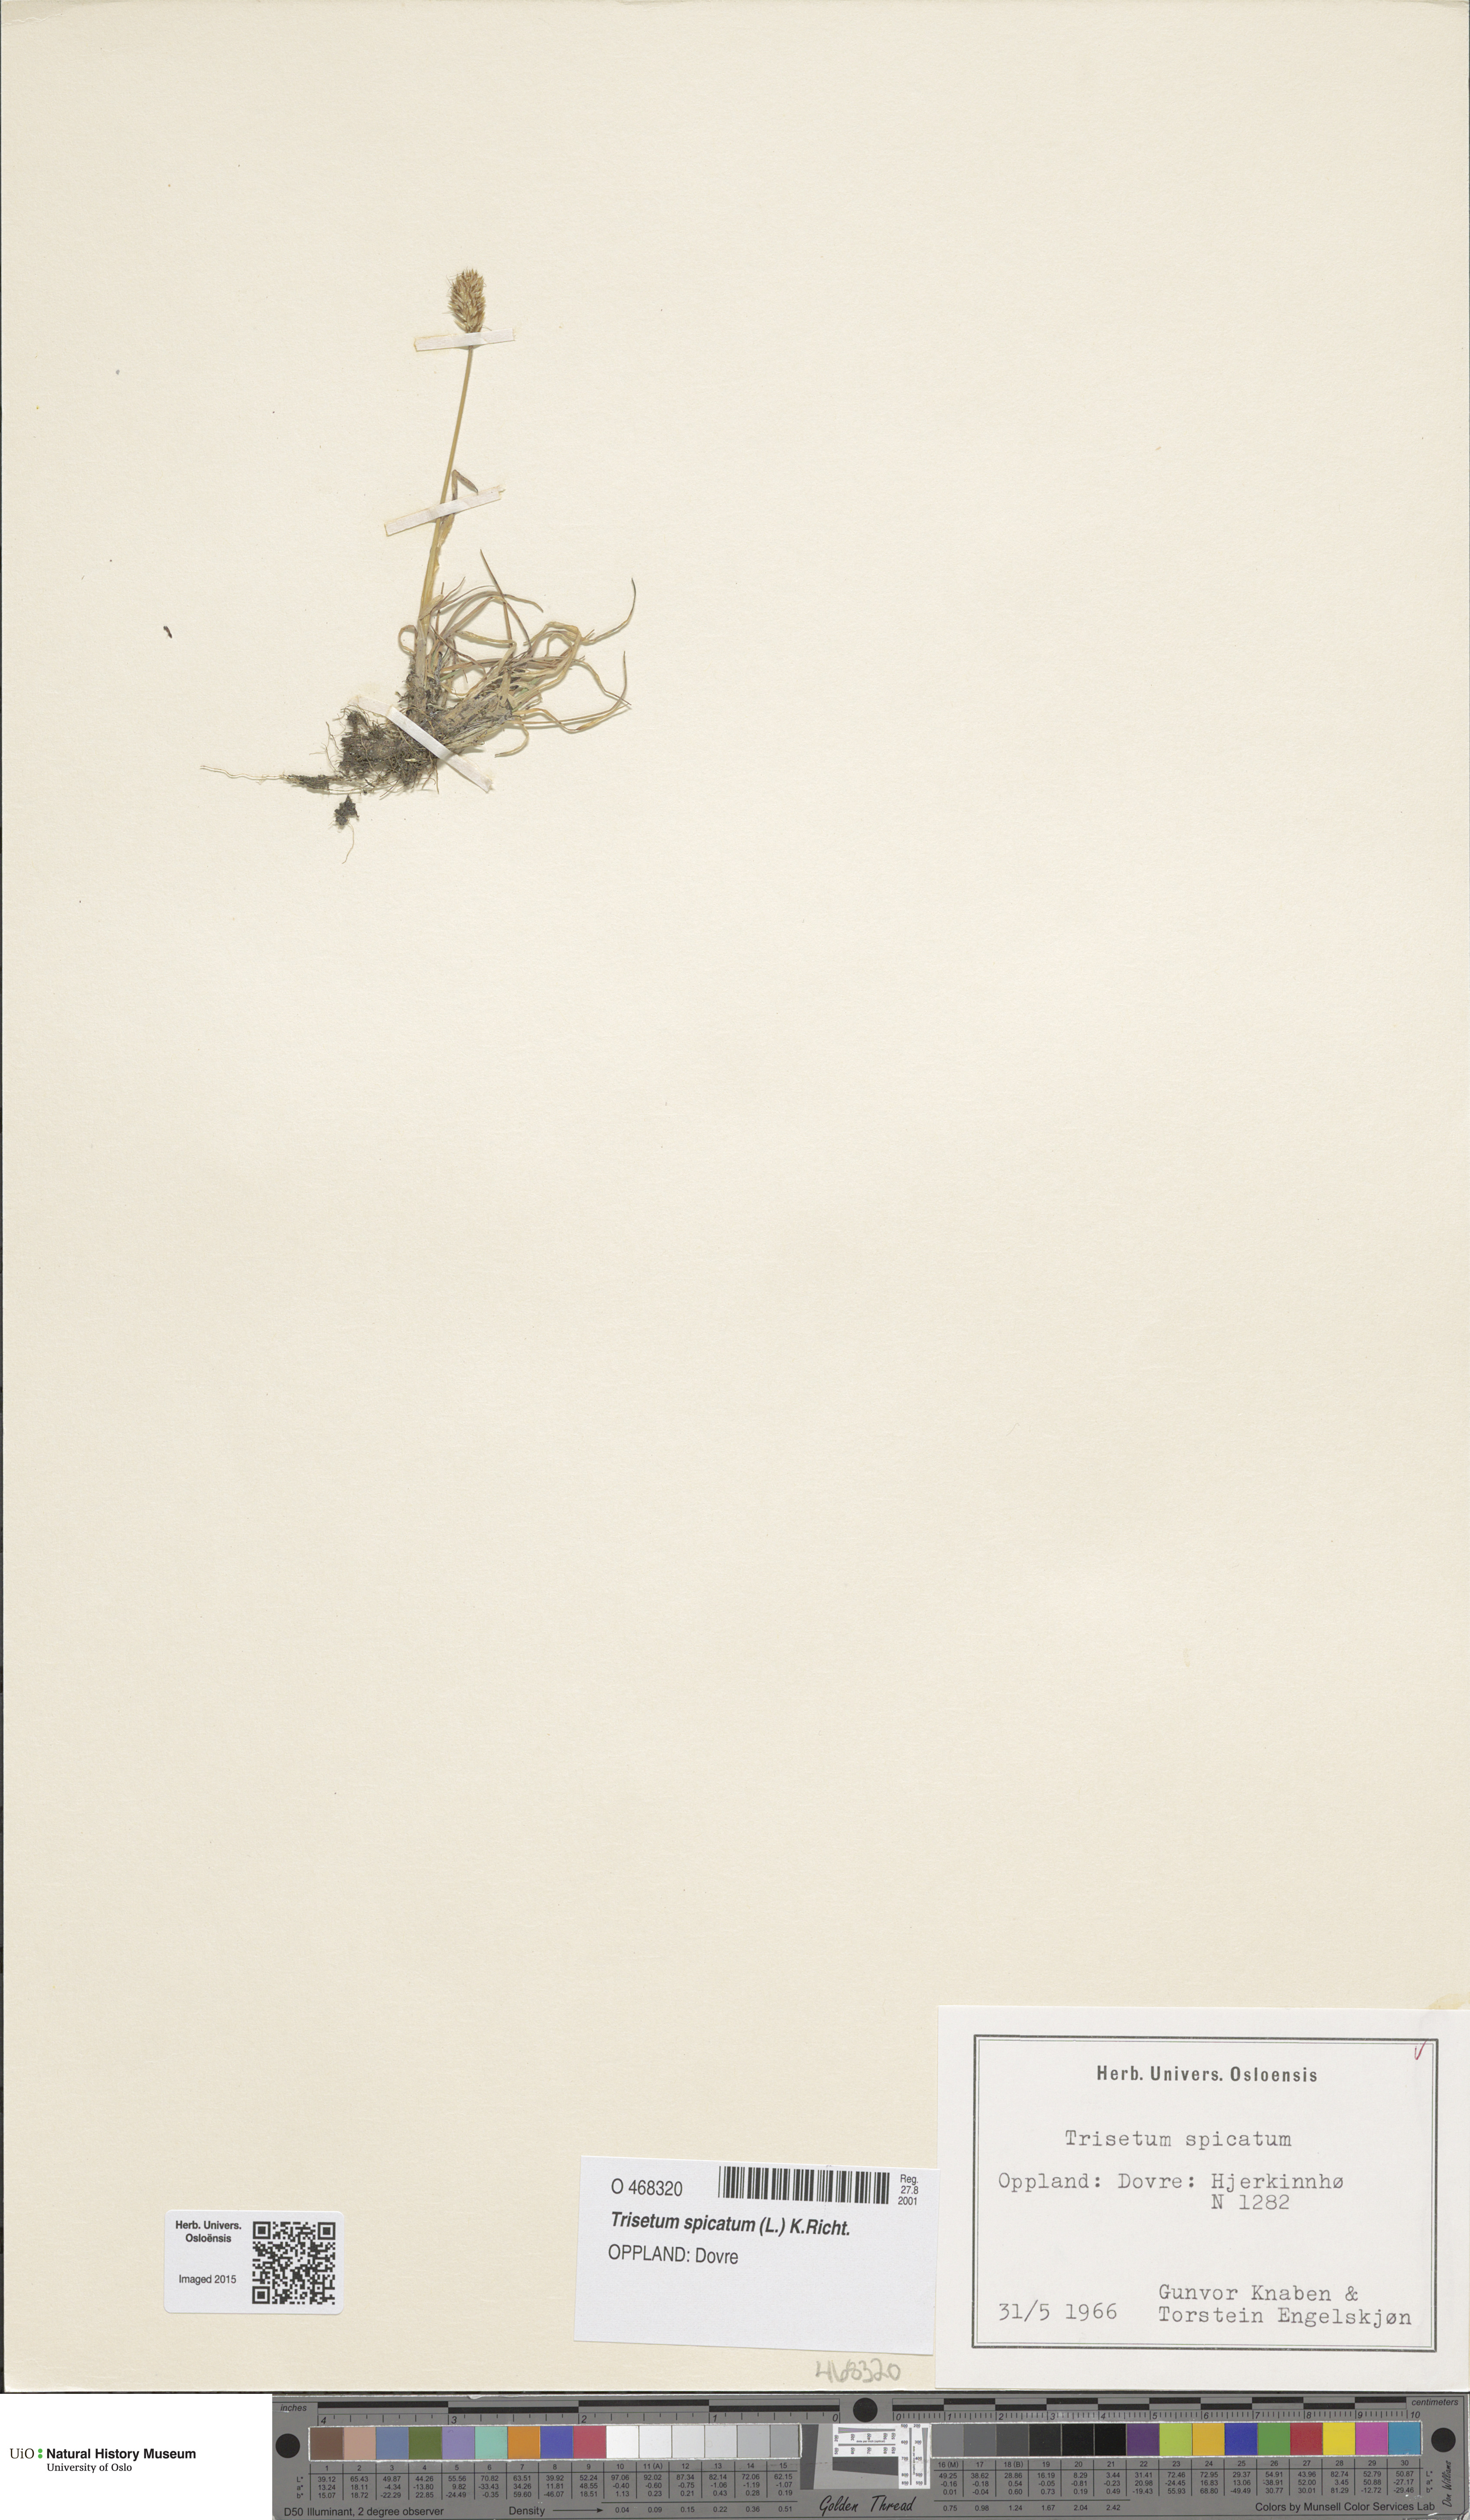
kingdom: Plantae
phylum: Tracheophyta
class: Liliopsida
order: Poales
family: Poaceae
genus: Koeleria
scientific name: Koeleria spicata
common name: Mountain trisetum
